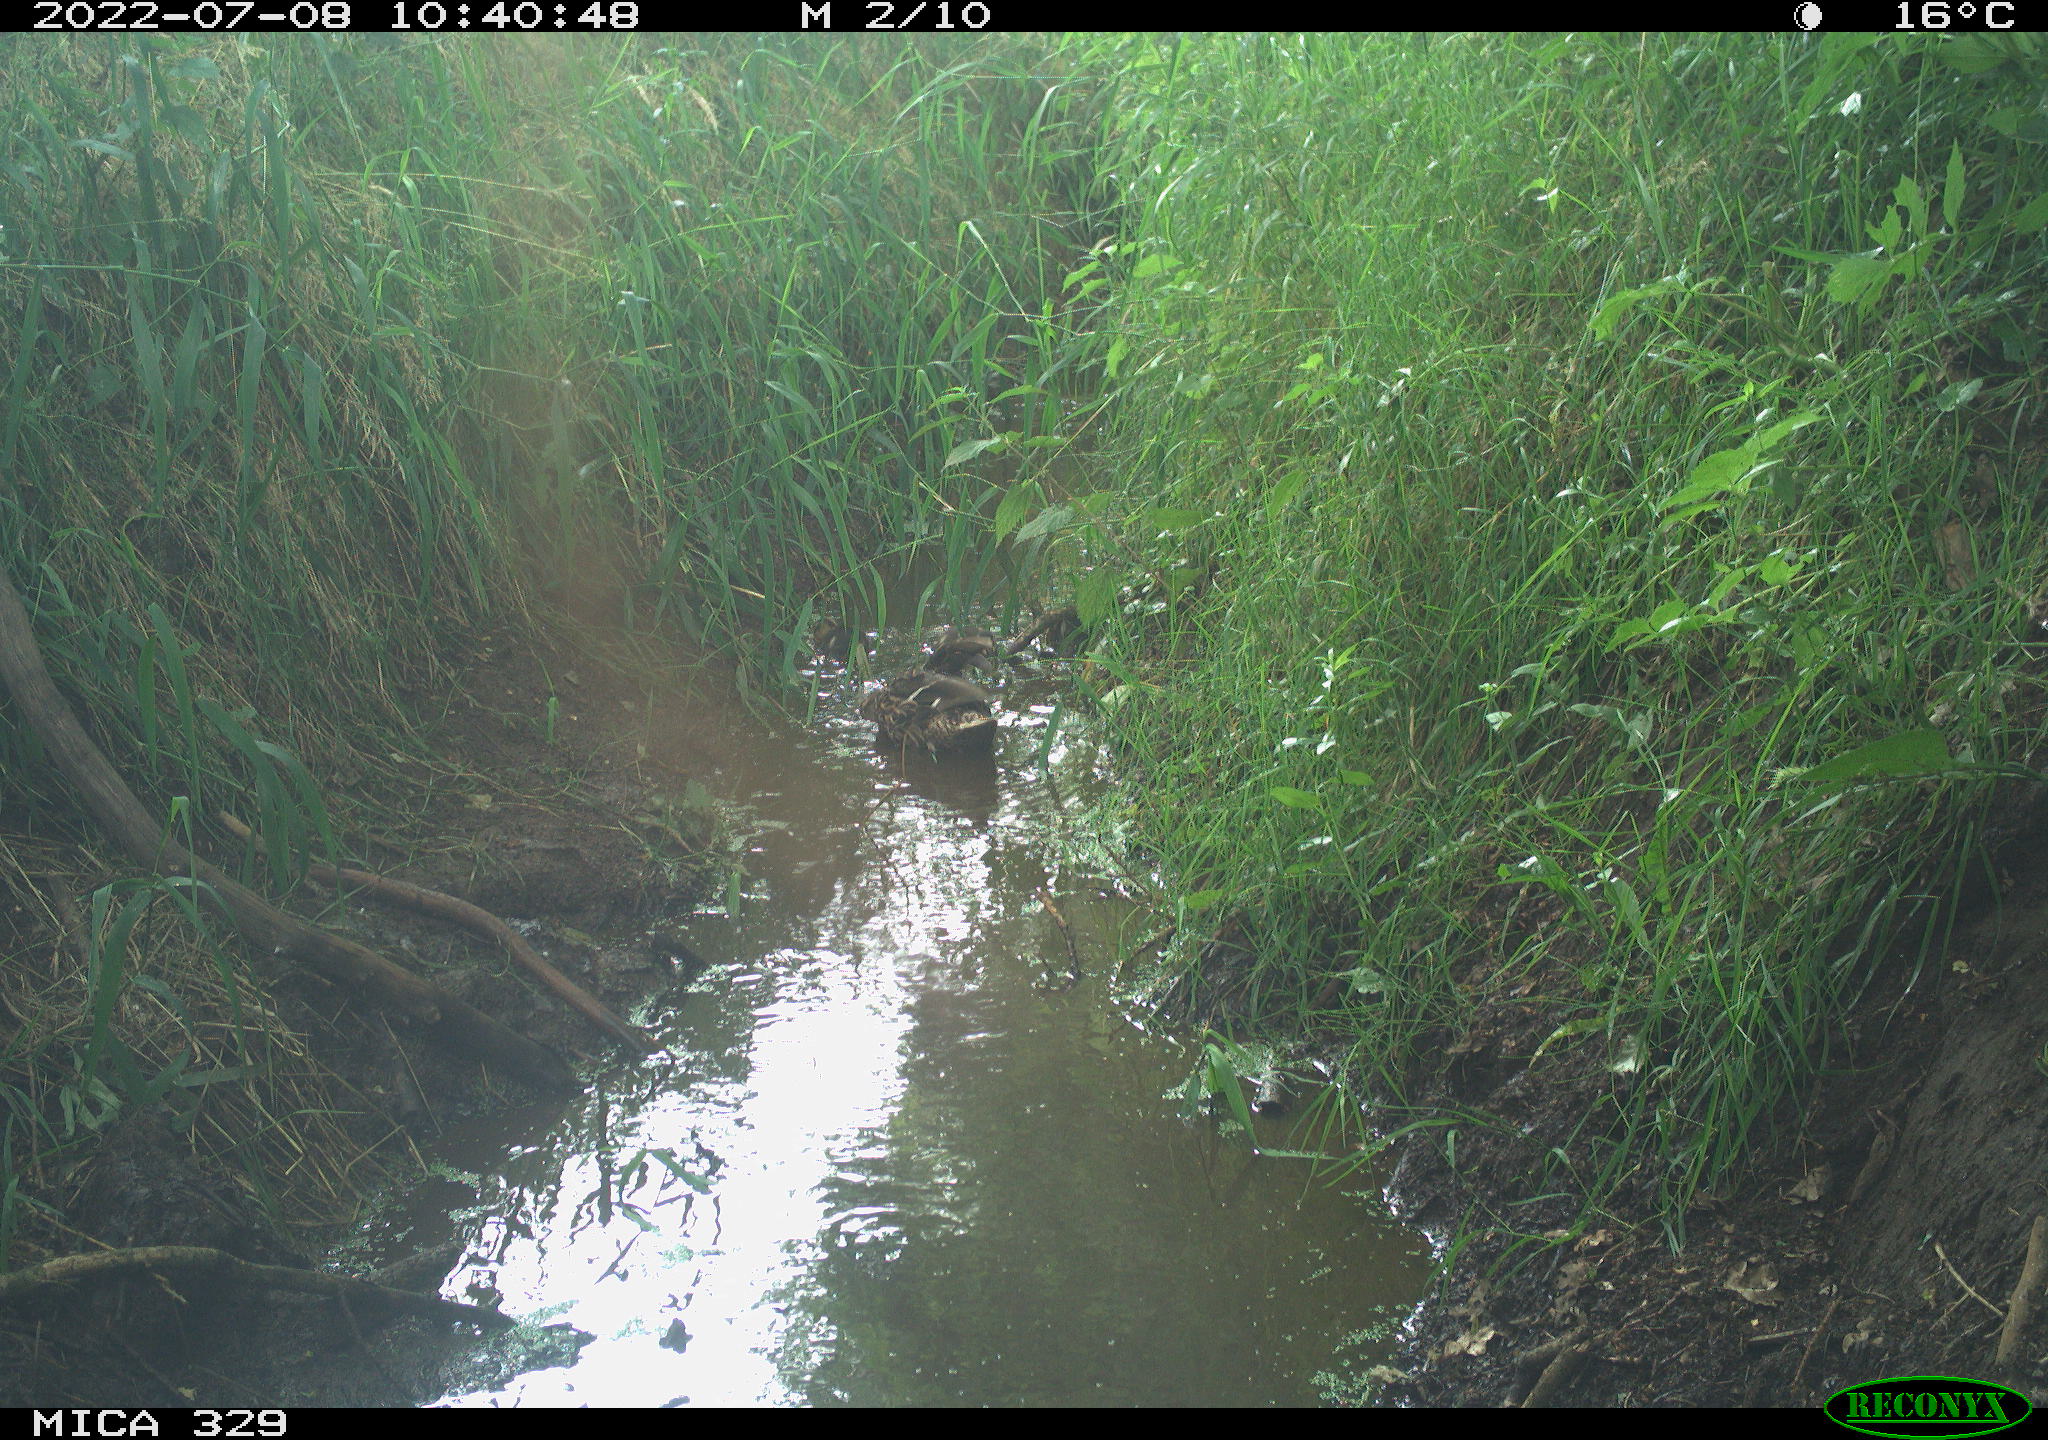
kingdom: Animalia
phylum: Chordata
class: Aves
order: Anseriformes
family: Anatidae
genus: Anas
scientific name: Anas platyrhynchos
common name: Mallard
